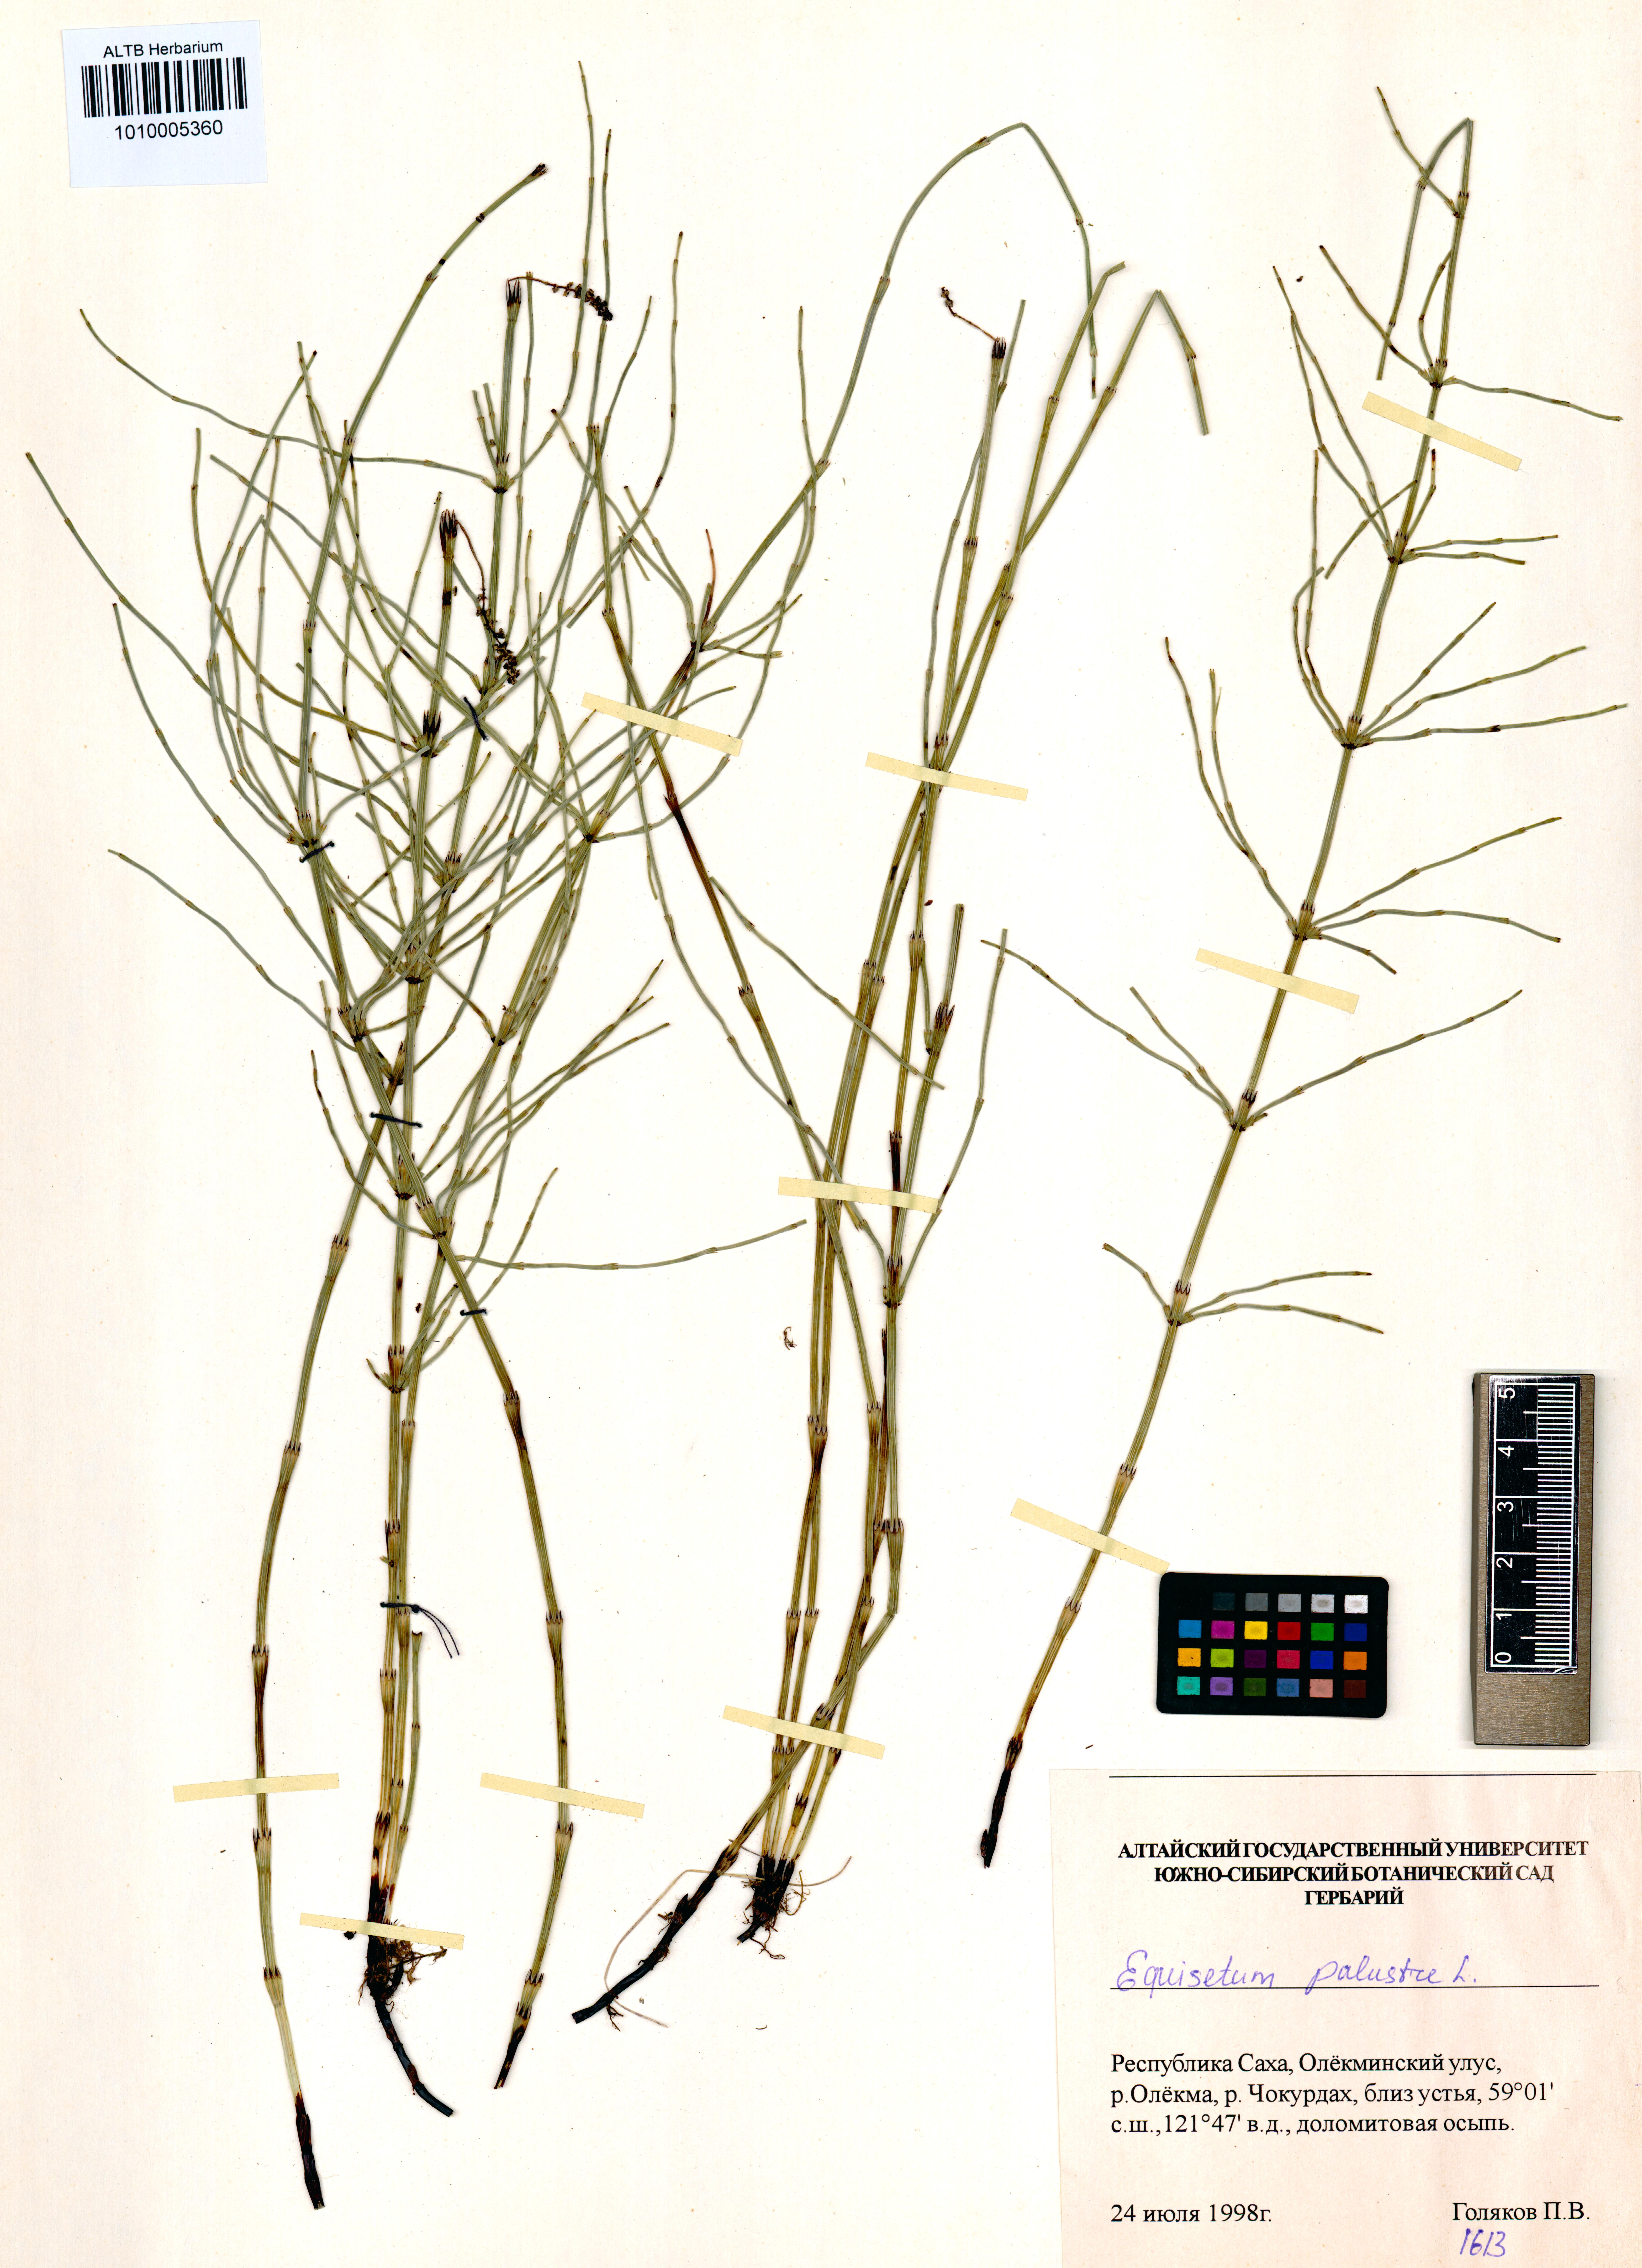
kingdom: Plantae
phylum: Tracheophyta
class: Polypodiopsida
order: Equisetales
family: Equisetaceae
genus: Equisetum
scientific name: Equisetum palustre
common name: Marsh horsetail
